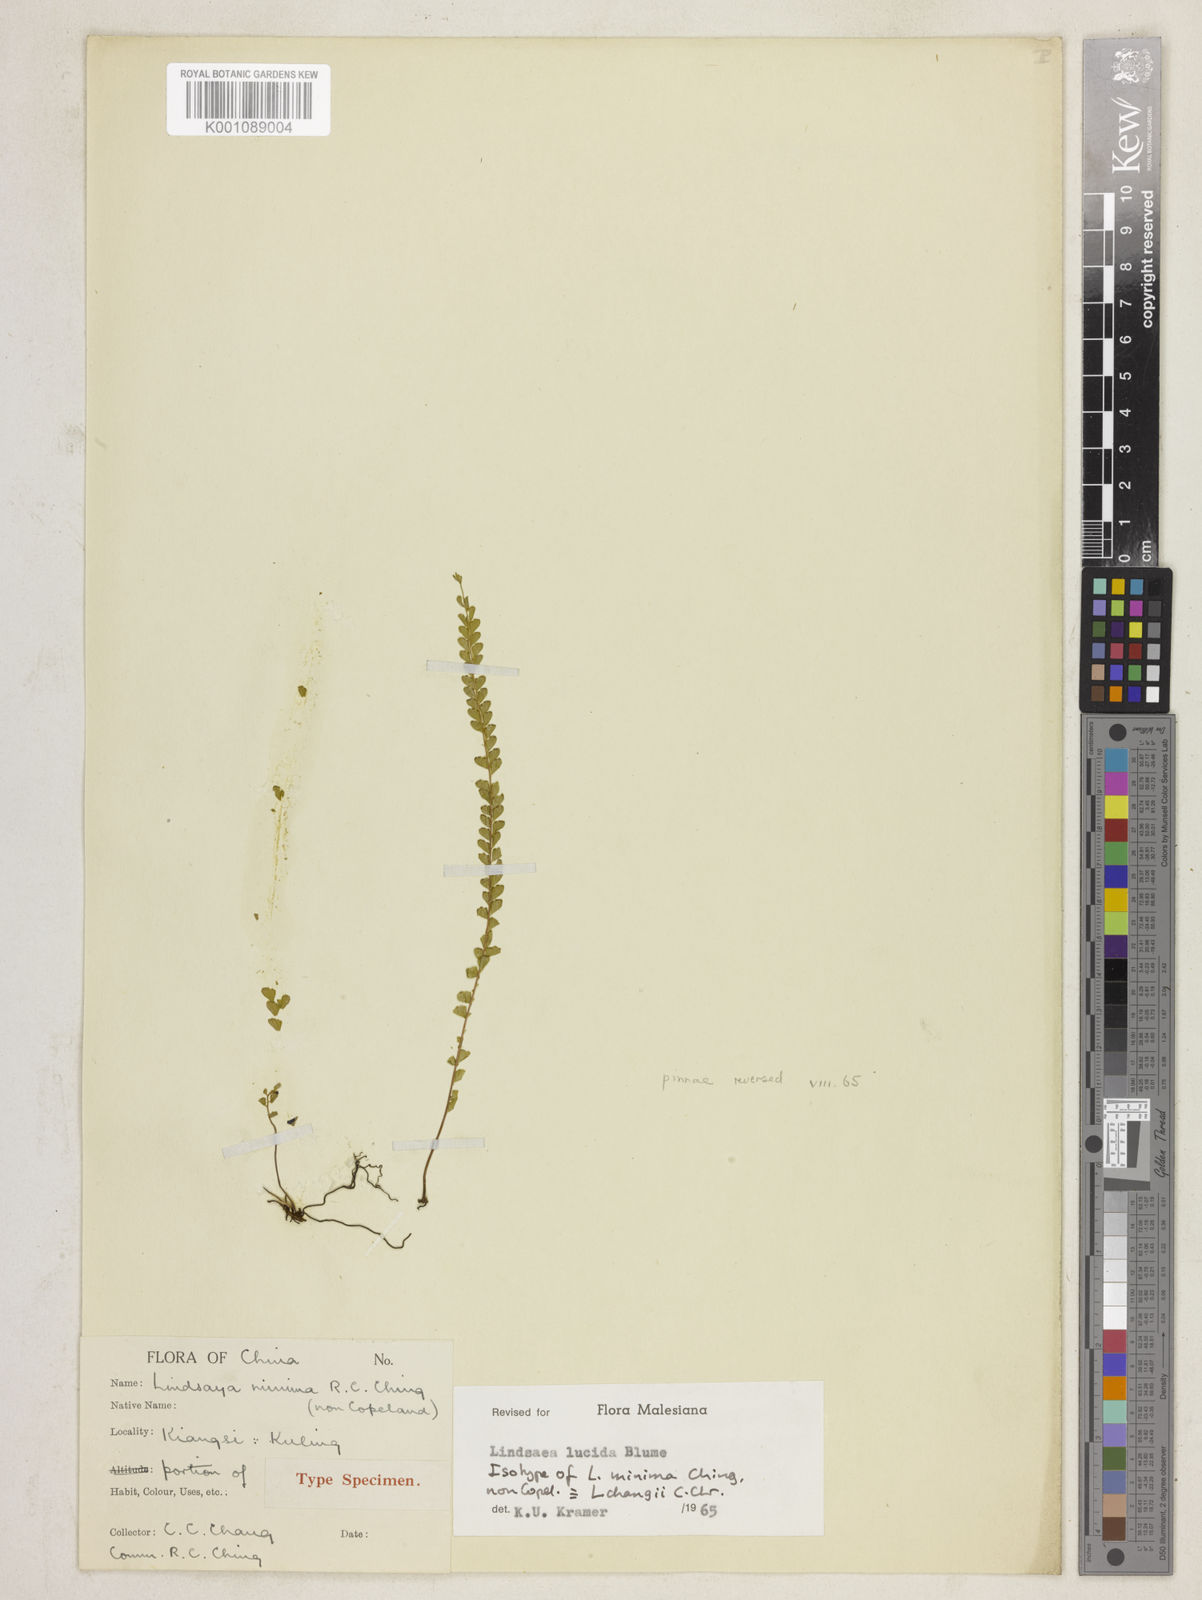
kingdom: Plantae
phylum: Tracheophyta
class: Polypodiopsida
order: Polypodiales
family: Lindsaeaceae
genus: Lindsaea
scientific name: Lindsaea lucida
